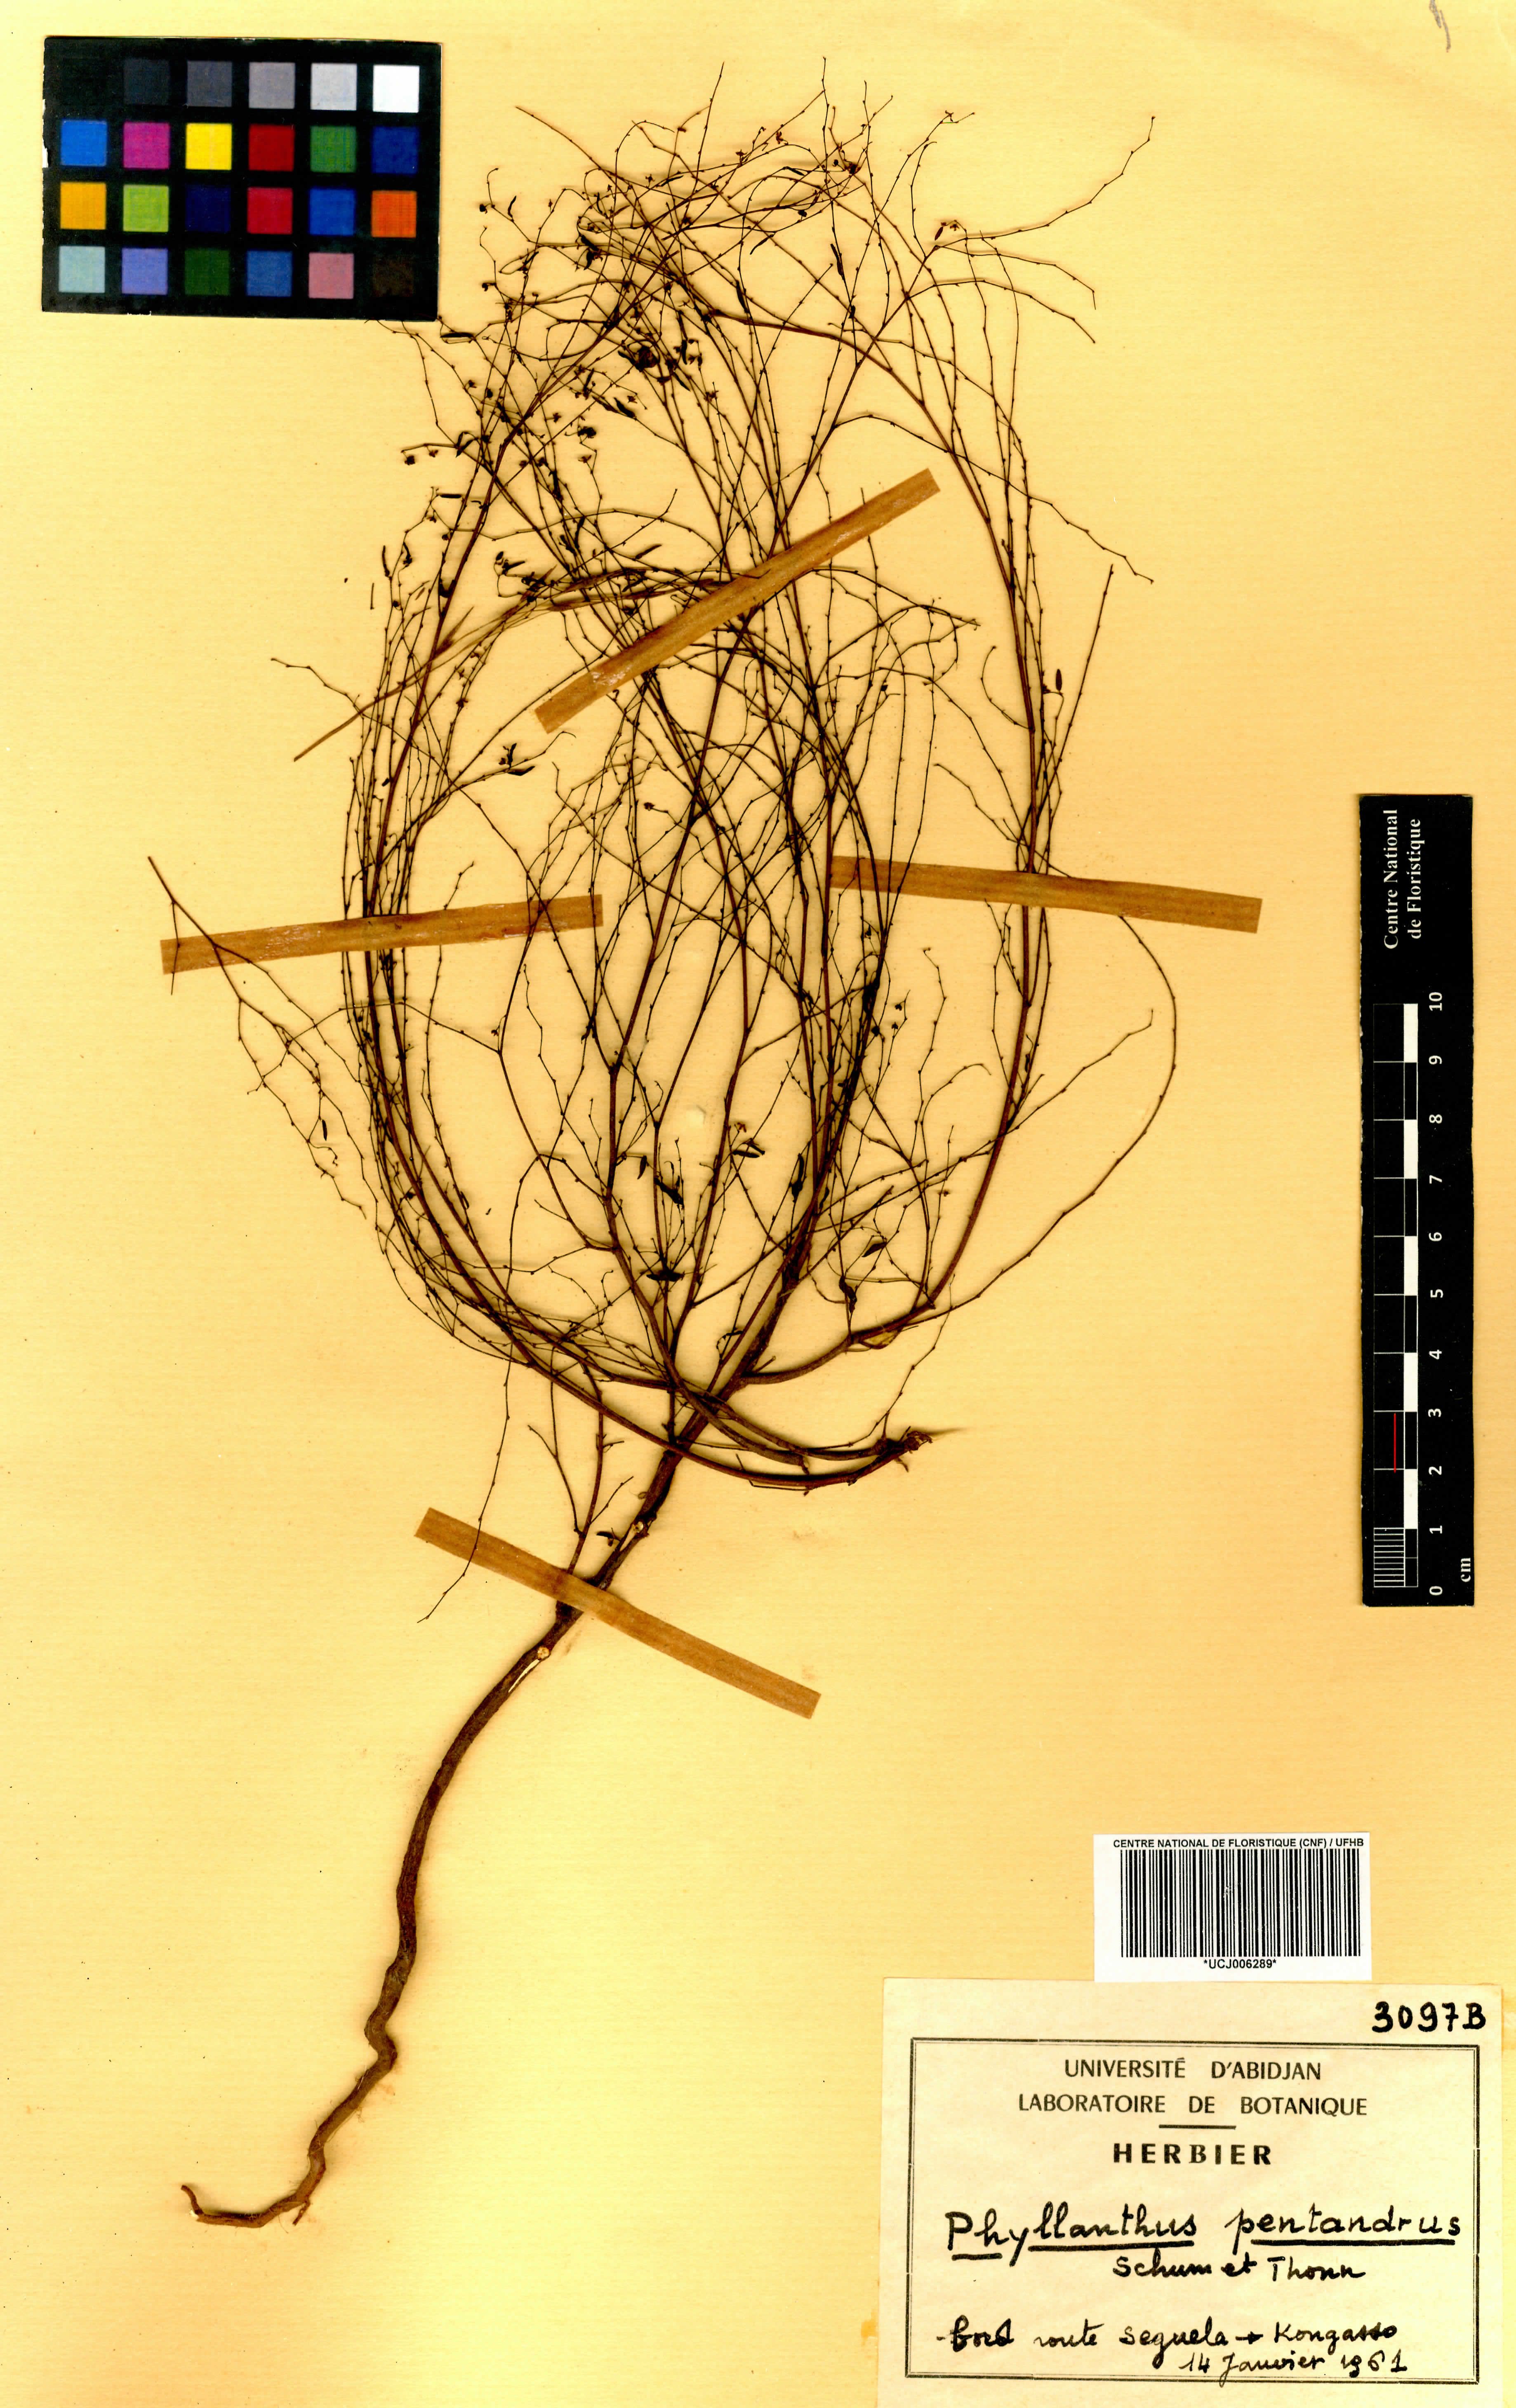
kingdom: Plantae
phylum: Tracheophyta
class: Magnoliopsida
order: Malpighiales
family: Phyllanthaceae
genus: Phyllanthus
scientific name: Phyllanthus pentandrus
